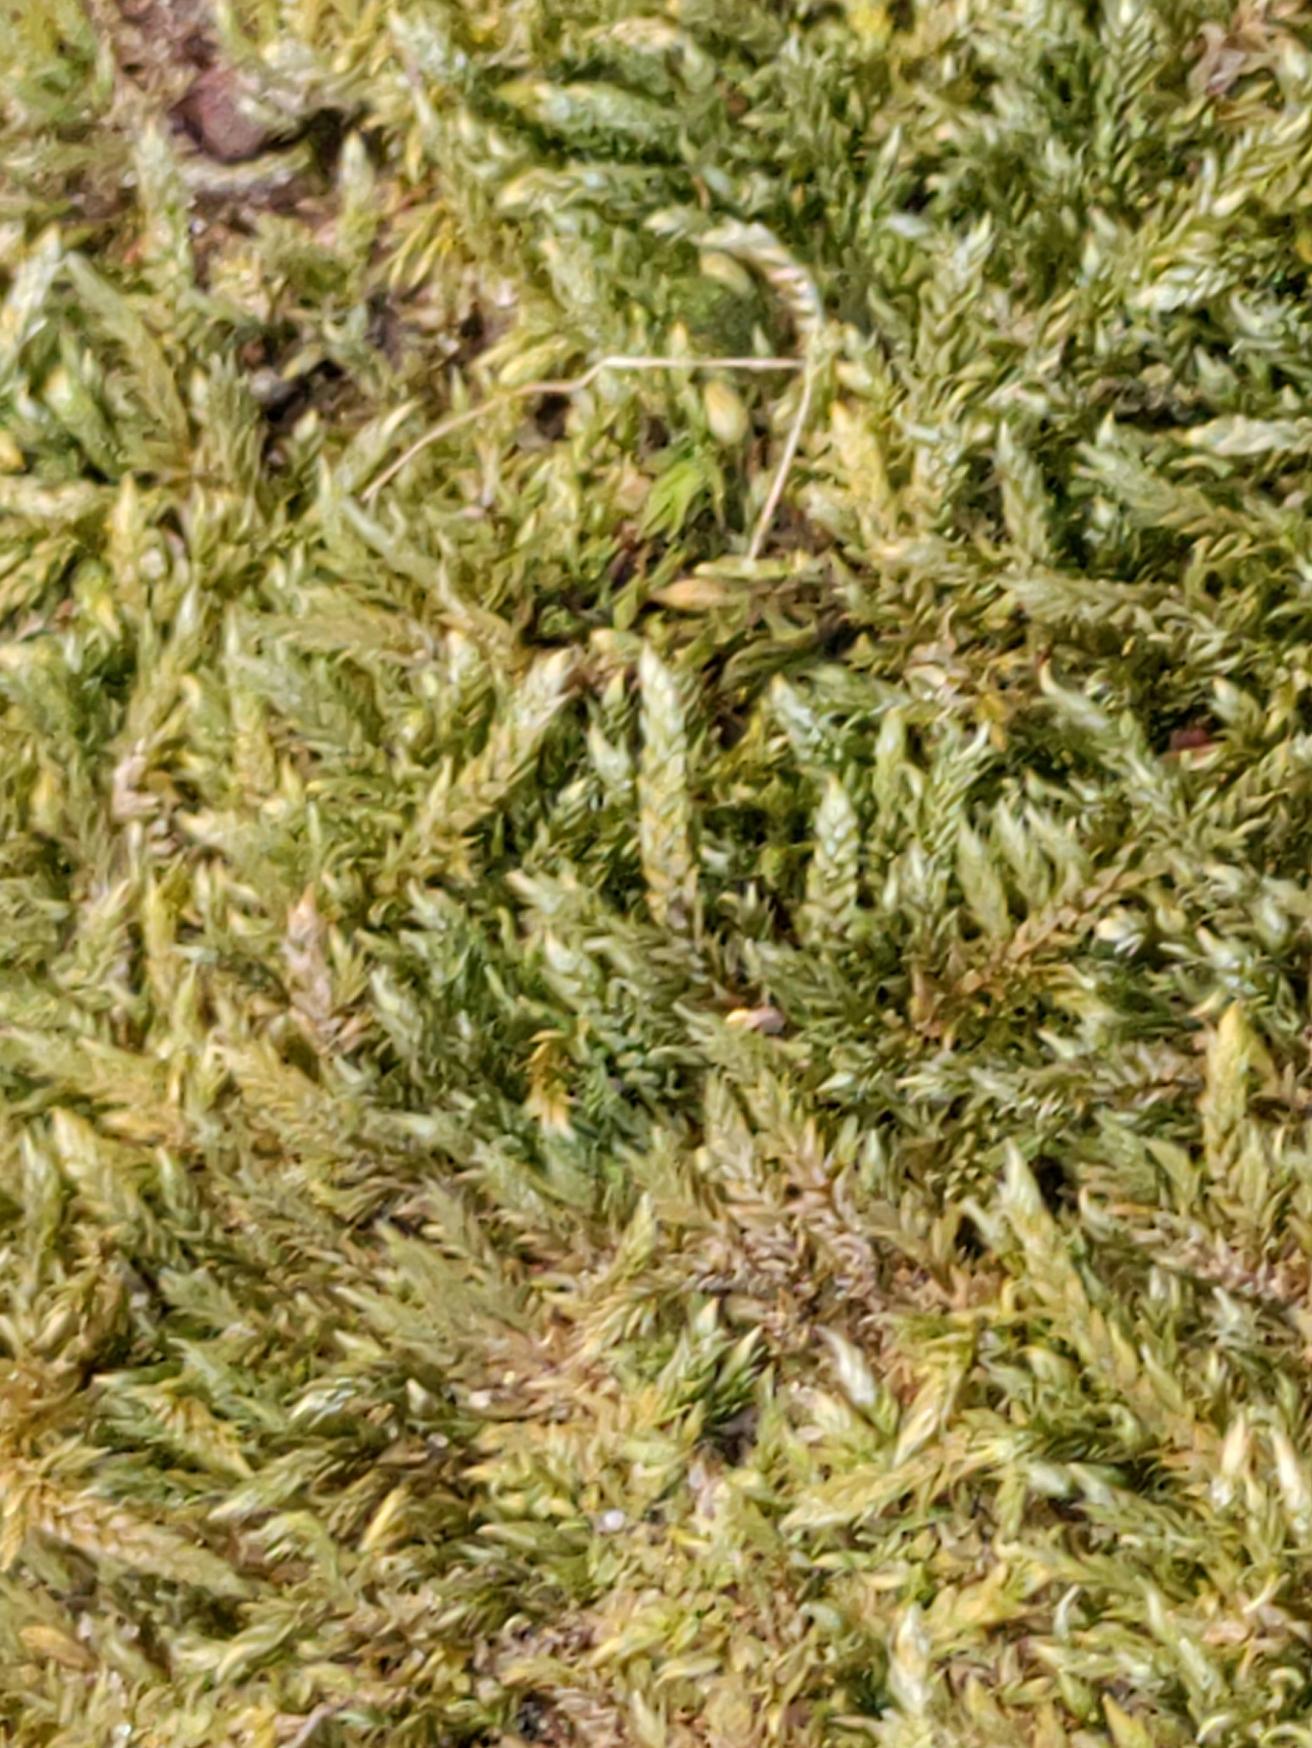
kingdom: Plantae
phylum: Bryophyta
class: Bryopsida
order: Hypnales
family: Hypnaceae
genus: Hypnum
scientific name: Hypnum cupressiforme
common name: Almindelig cypresmos
